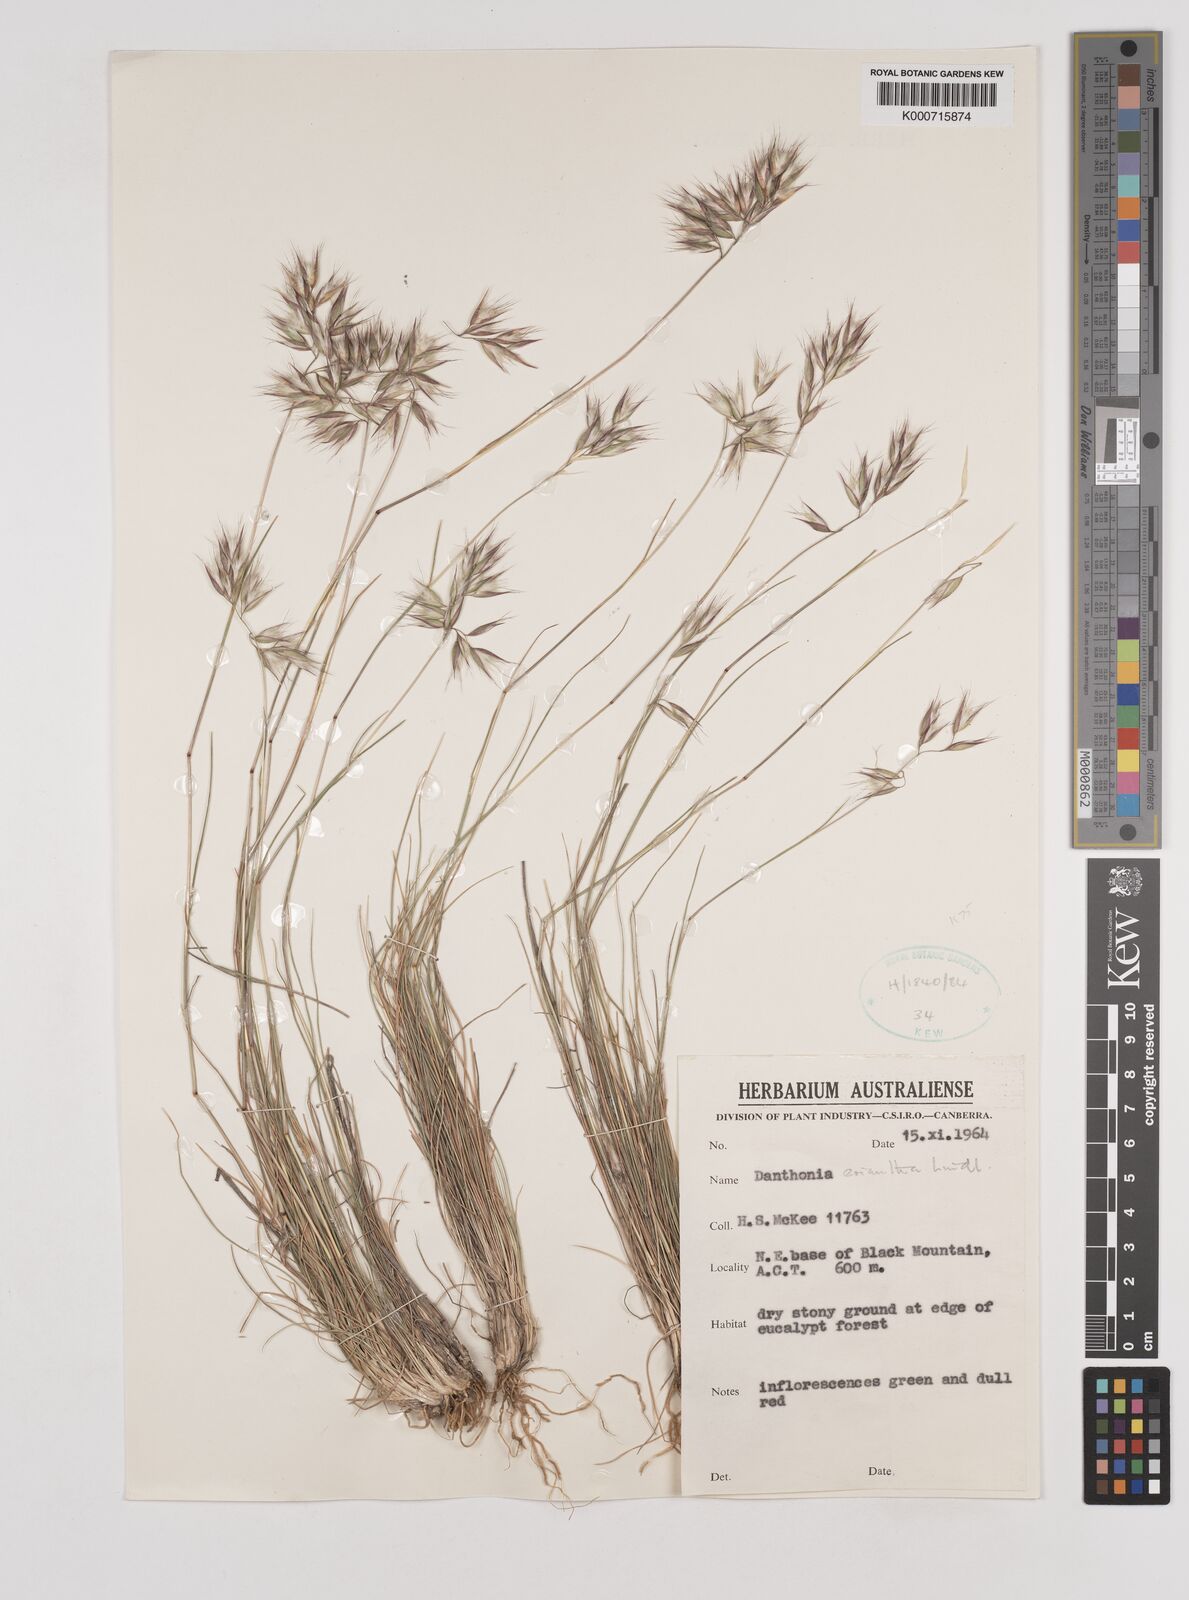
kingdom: Plantae
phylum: Tracheophyta
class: Liliopsida
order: Poales
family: Poaceae
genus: Rytidosperma
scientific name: Rytidosperma erianthum
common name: Hill wallaby grass
